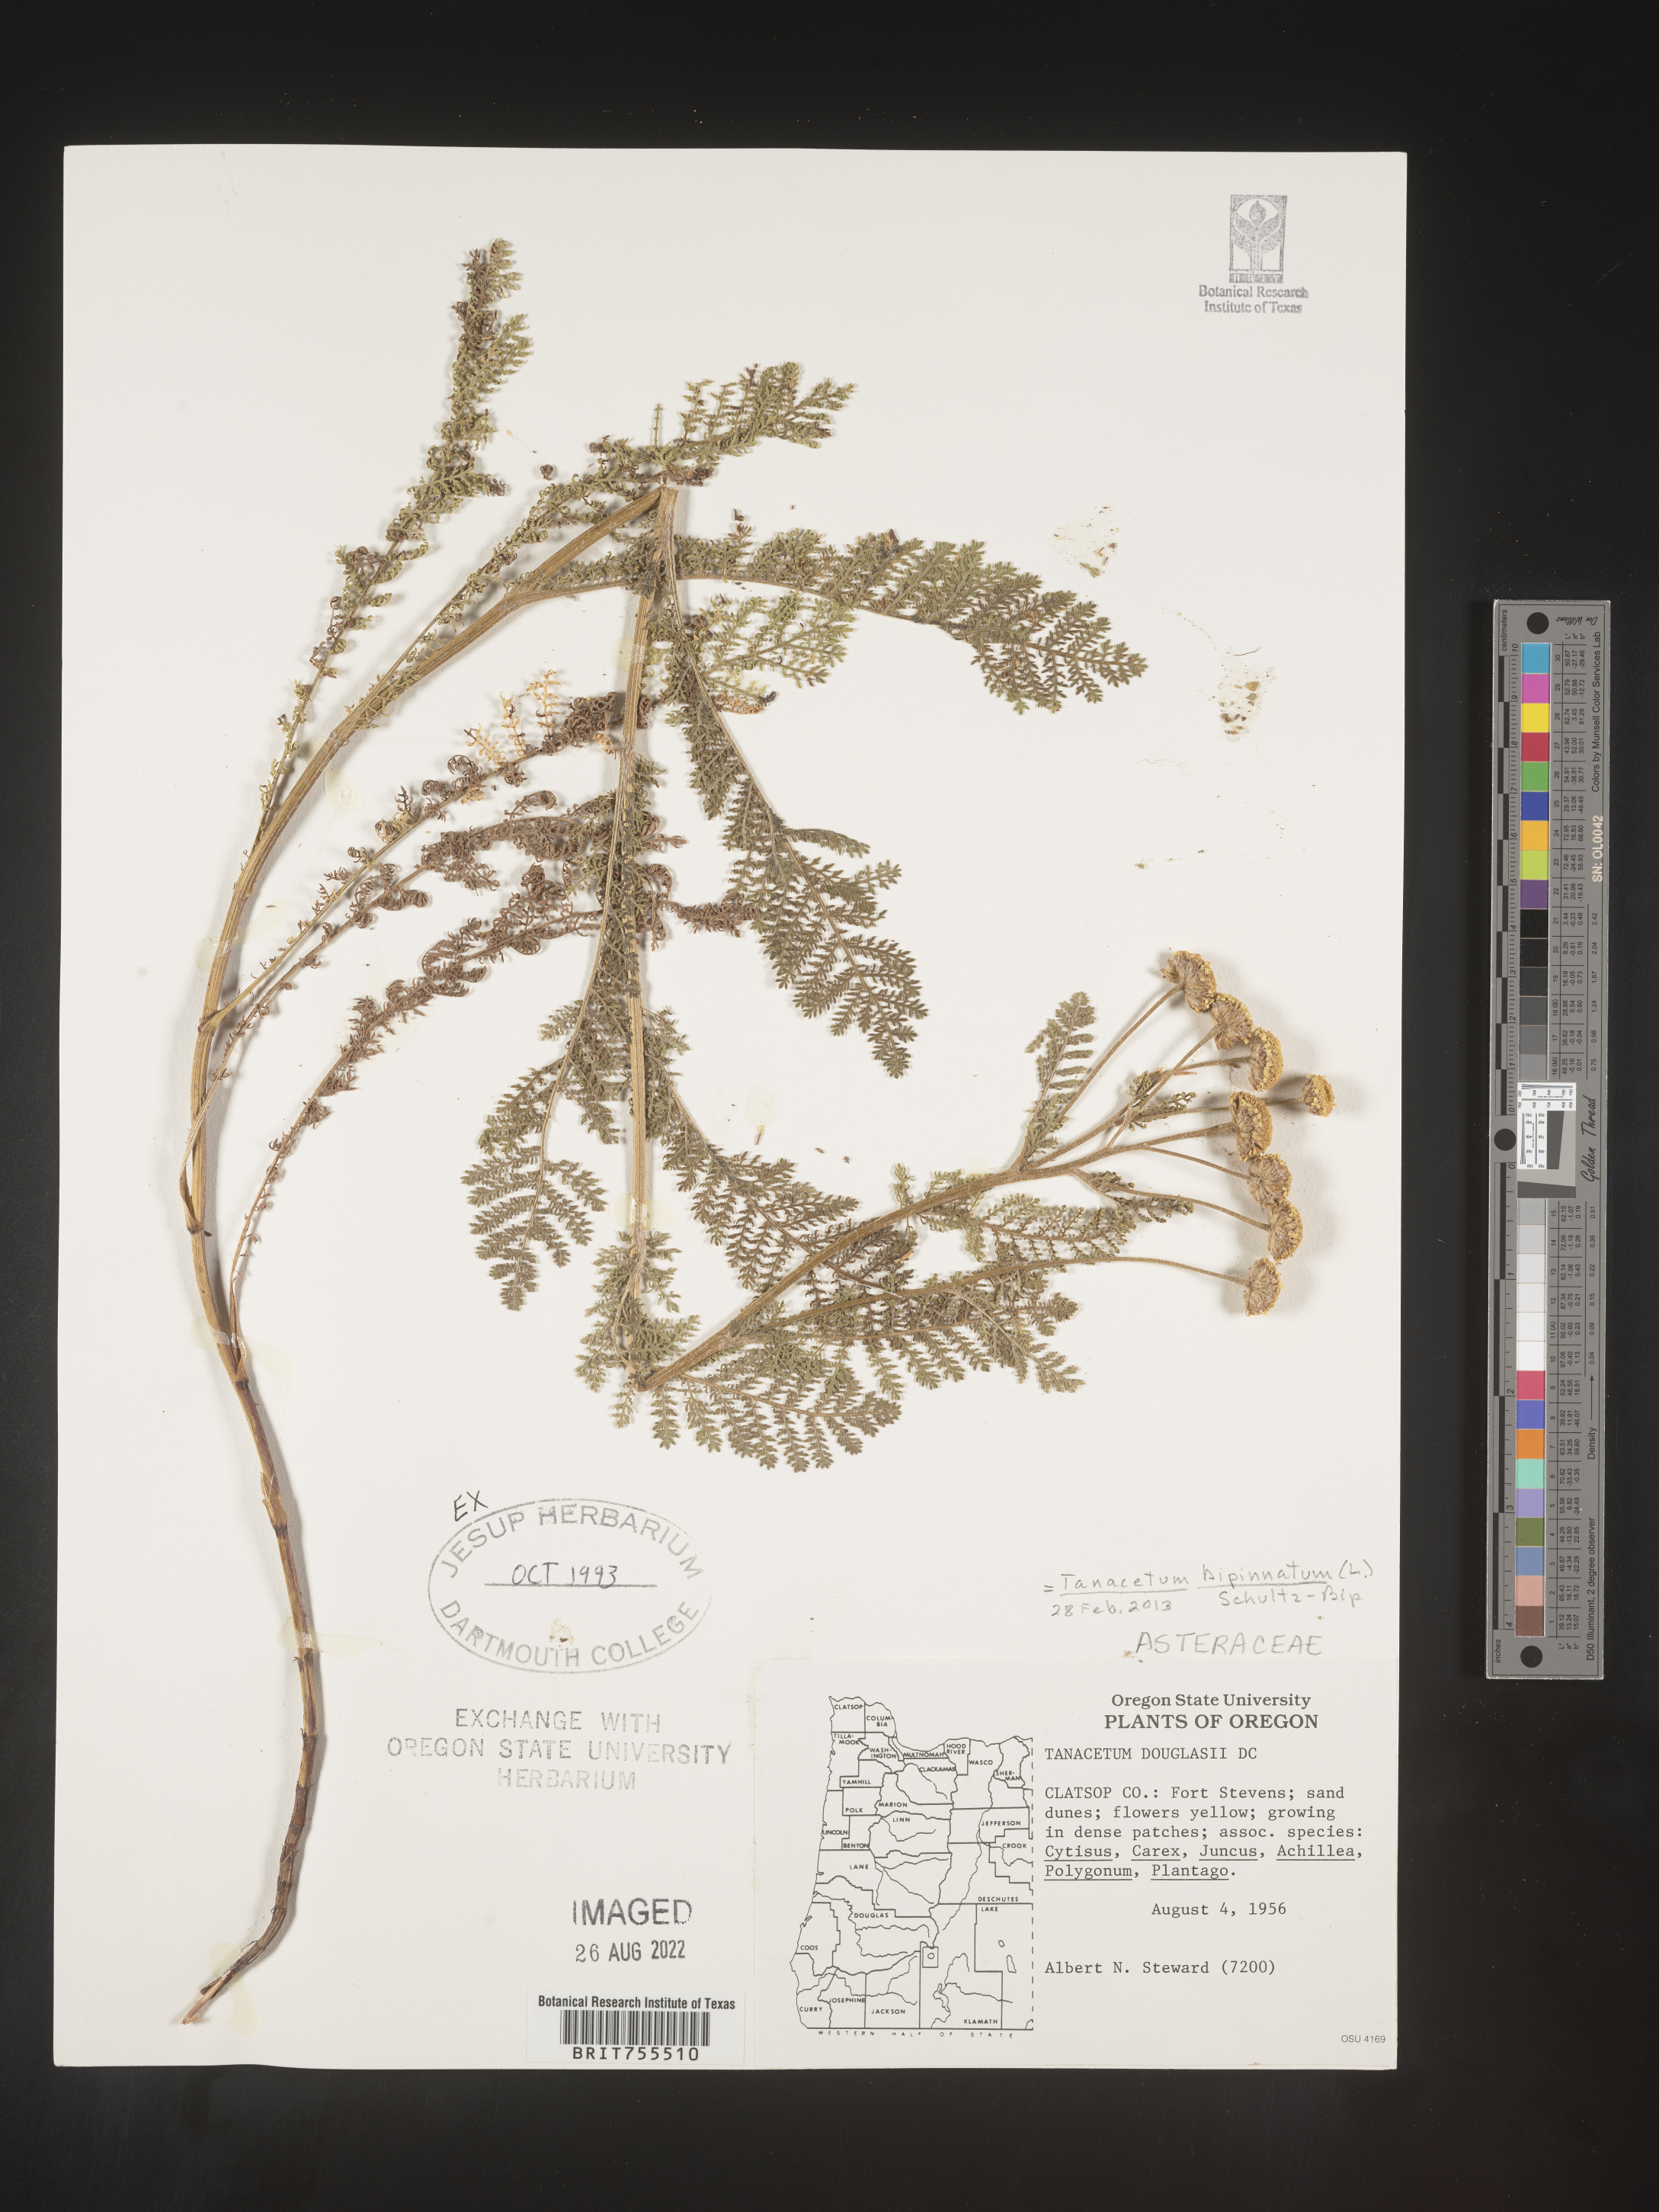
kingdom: Plantae
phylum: Tracheophyta
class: Magnoliopsida
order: Asterales
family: Asteraceae
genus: Tanacetum
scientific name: Tanacetum bipinnatum
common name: Dwarf tansy
